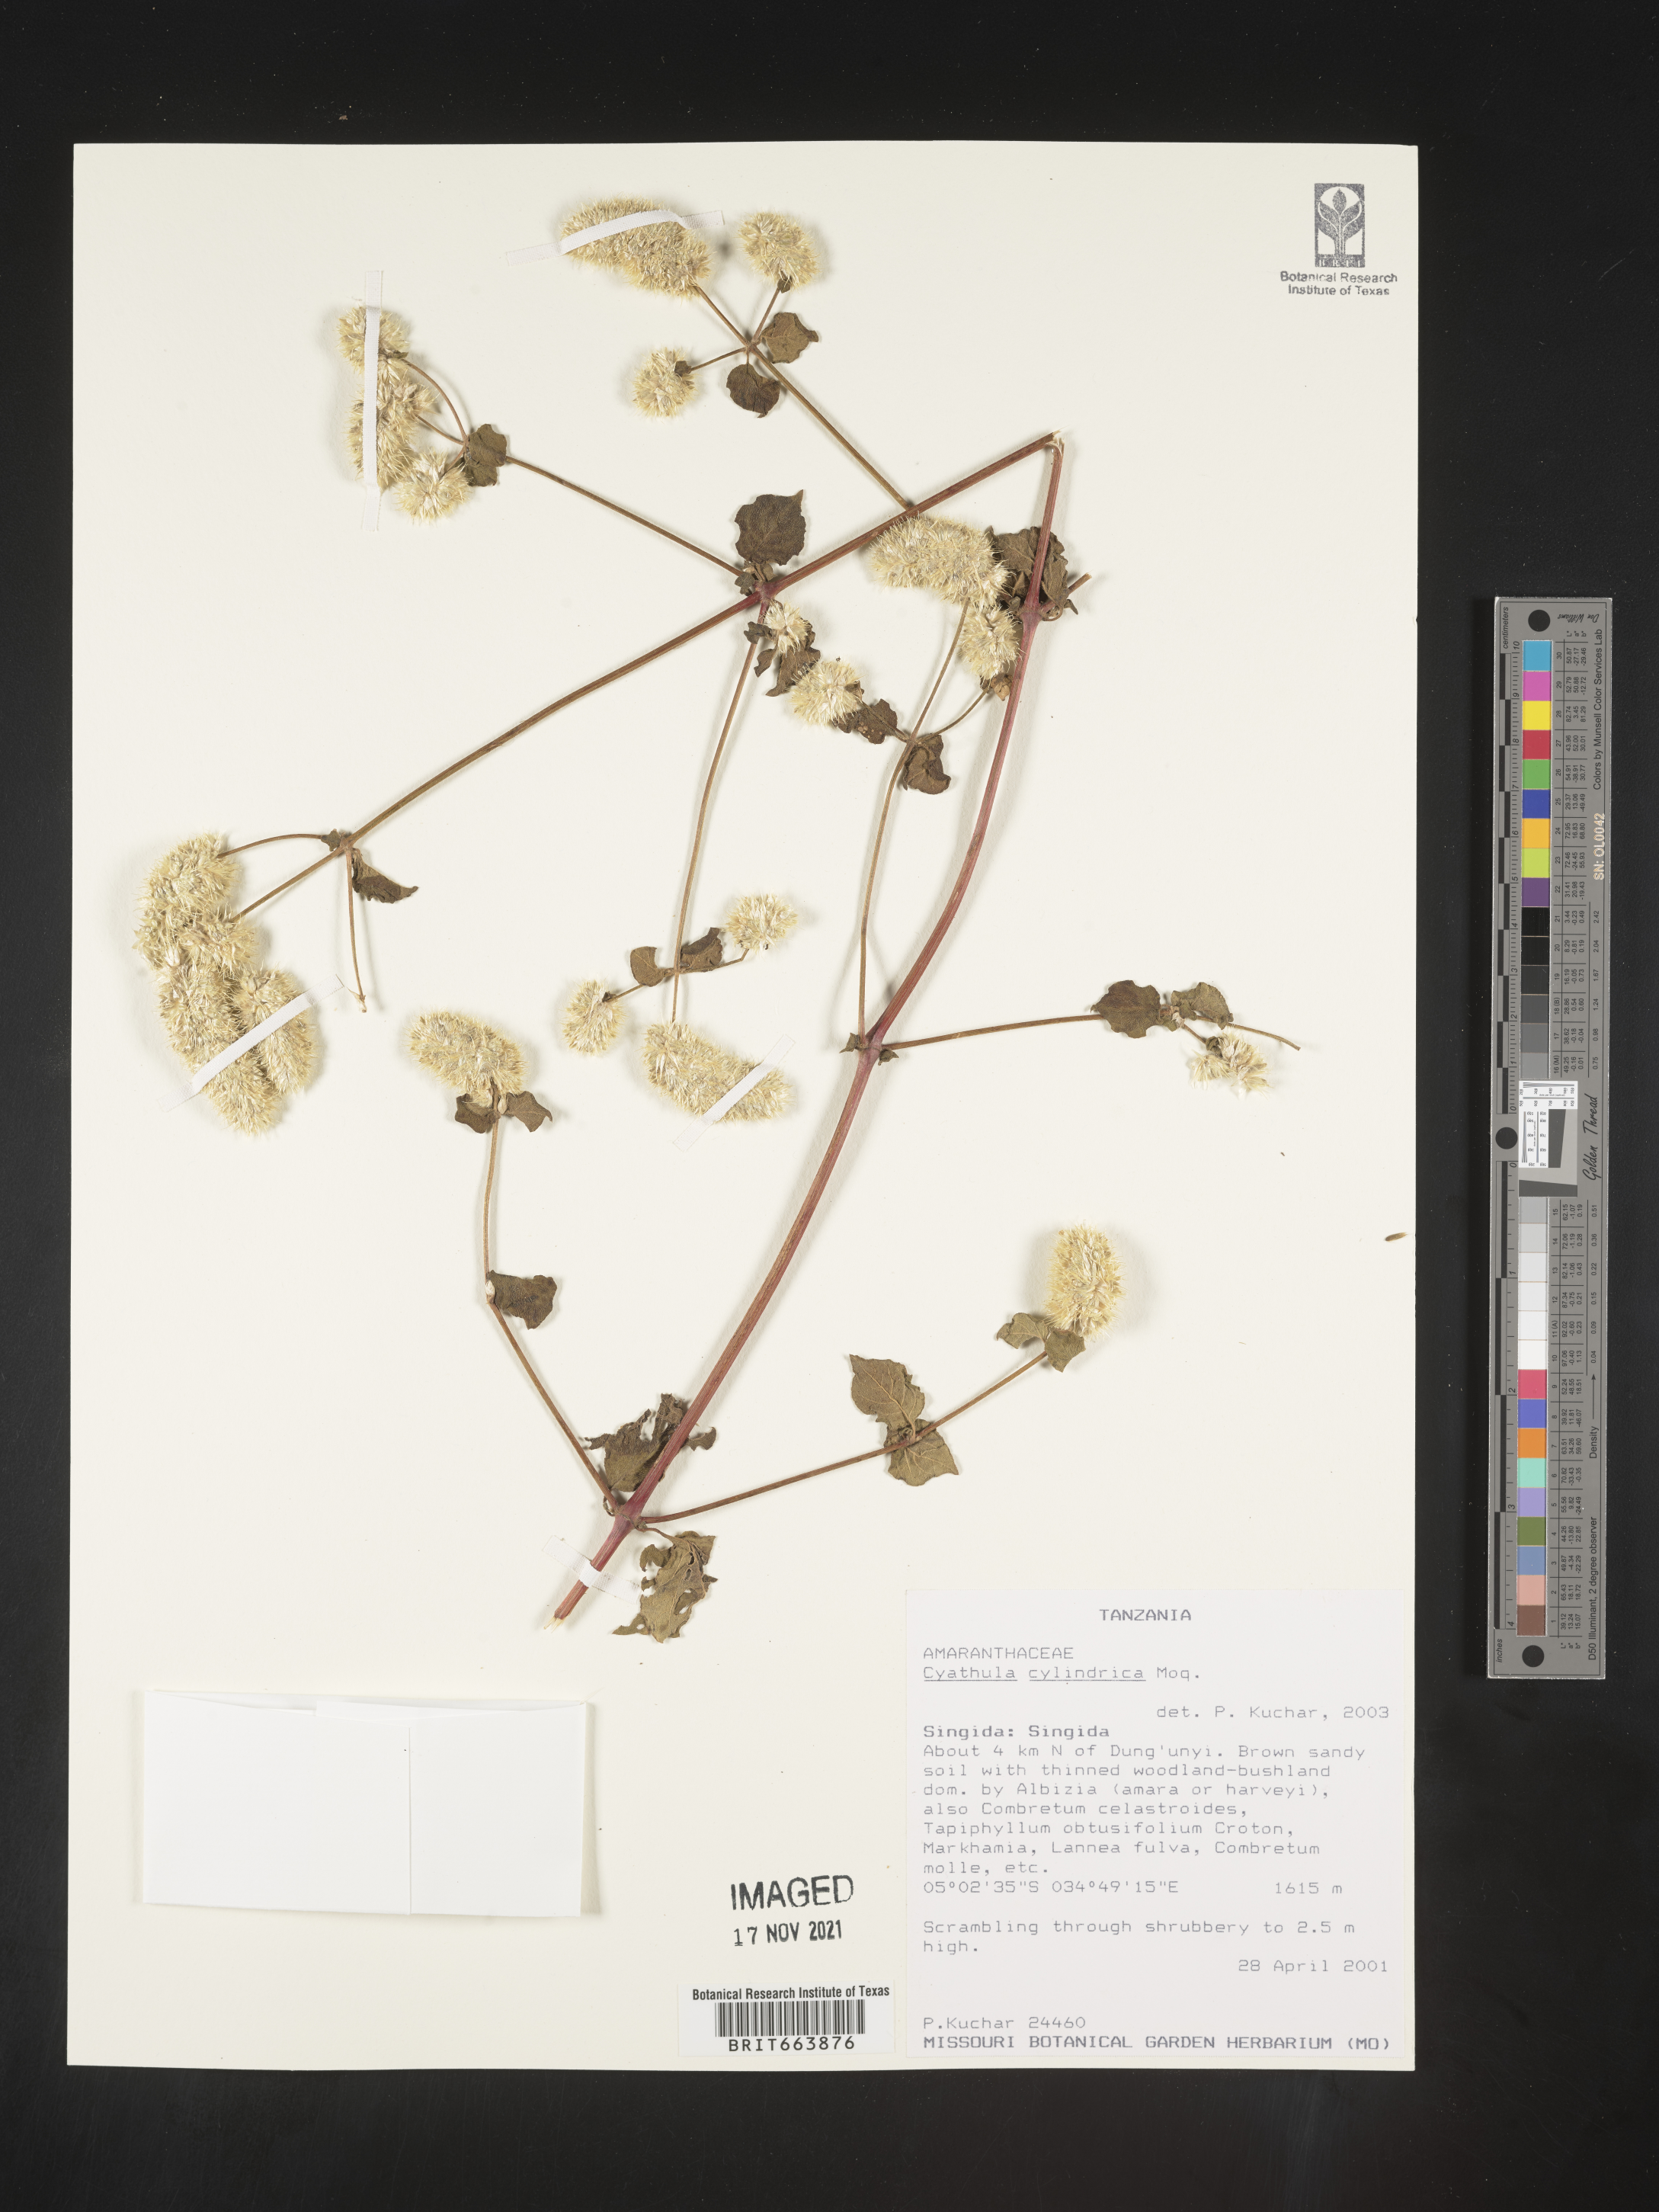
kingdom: Plantae
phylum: Tracheophyta
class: Magnoliopsida
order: Caryophyllales
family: Amaranthaceae
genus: Cyathula
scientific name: Cyathula
